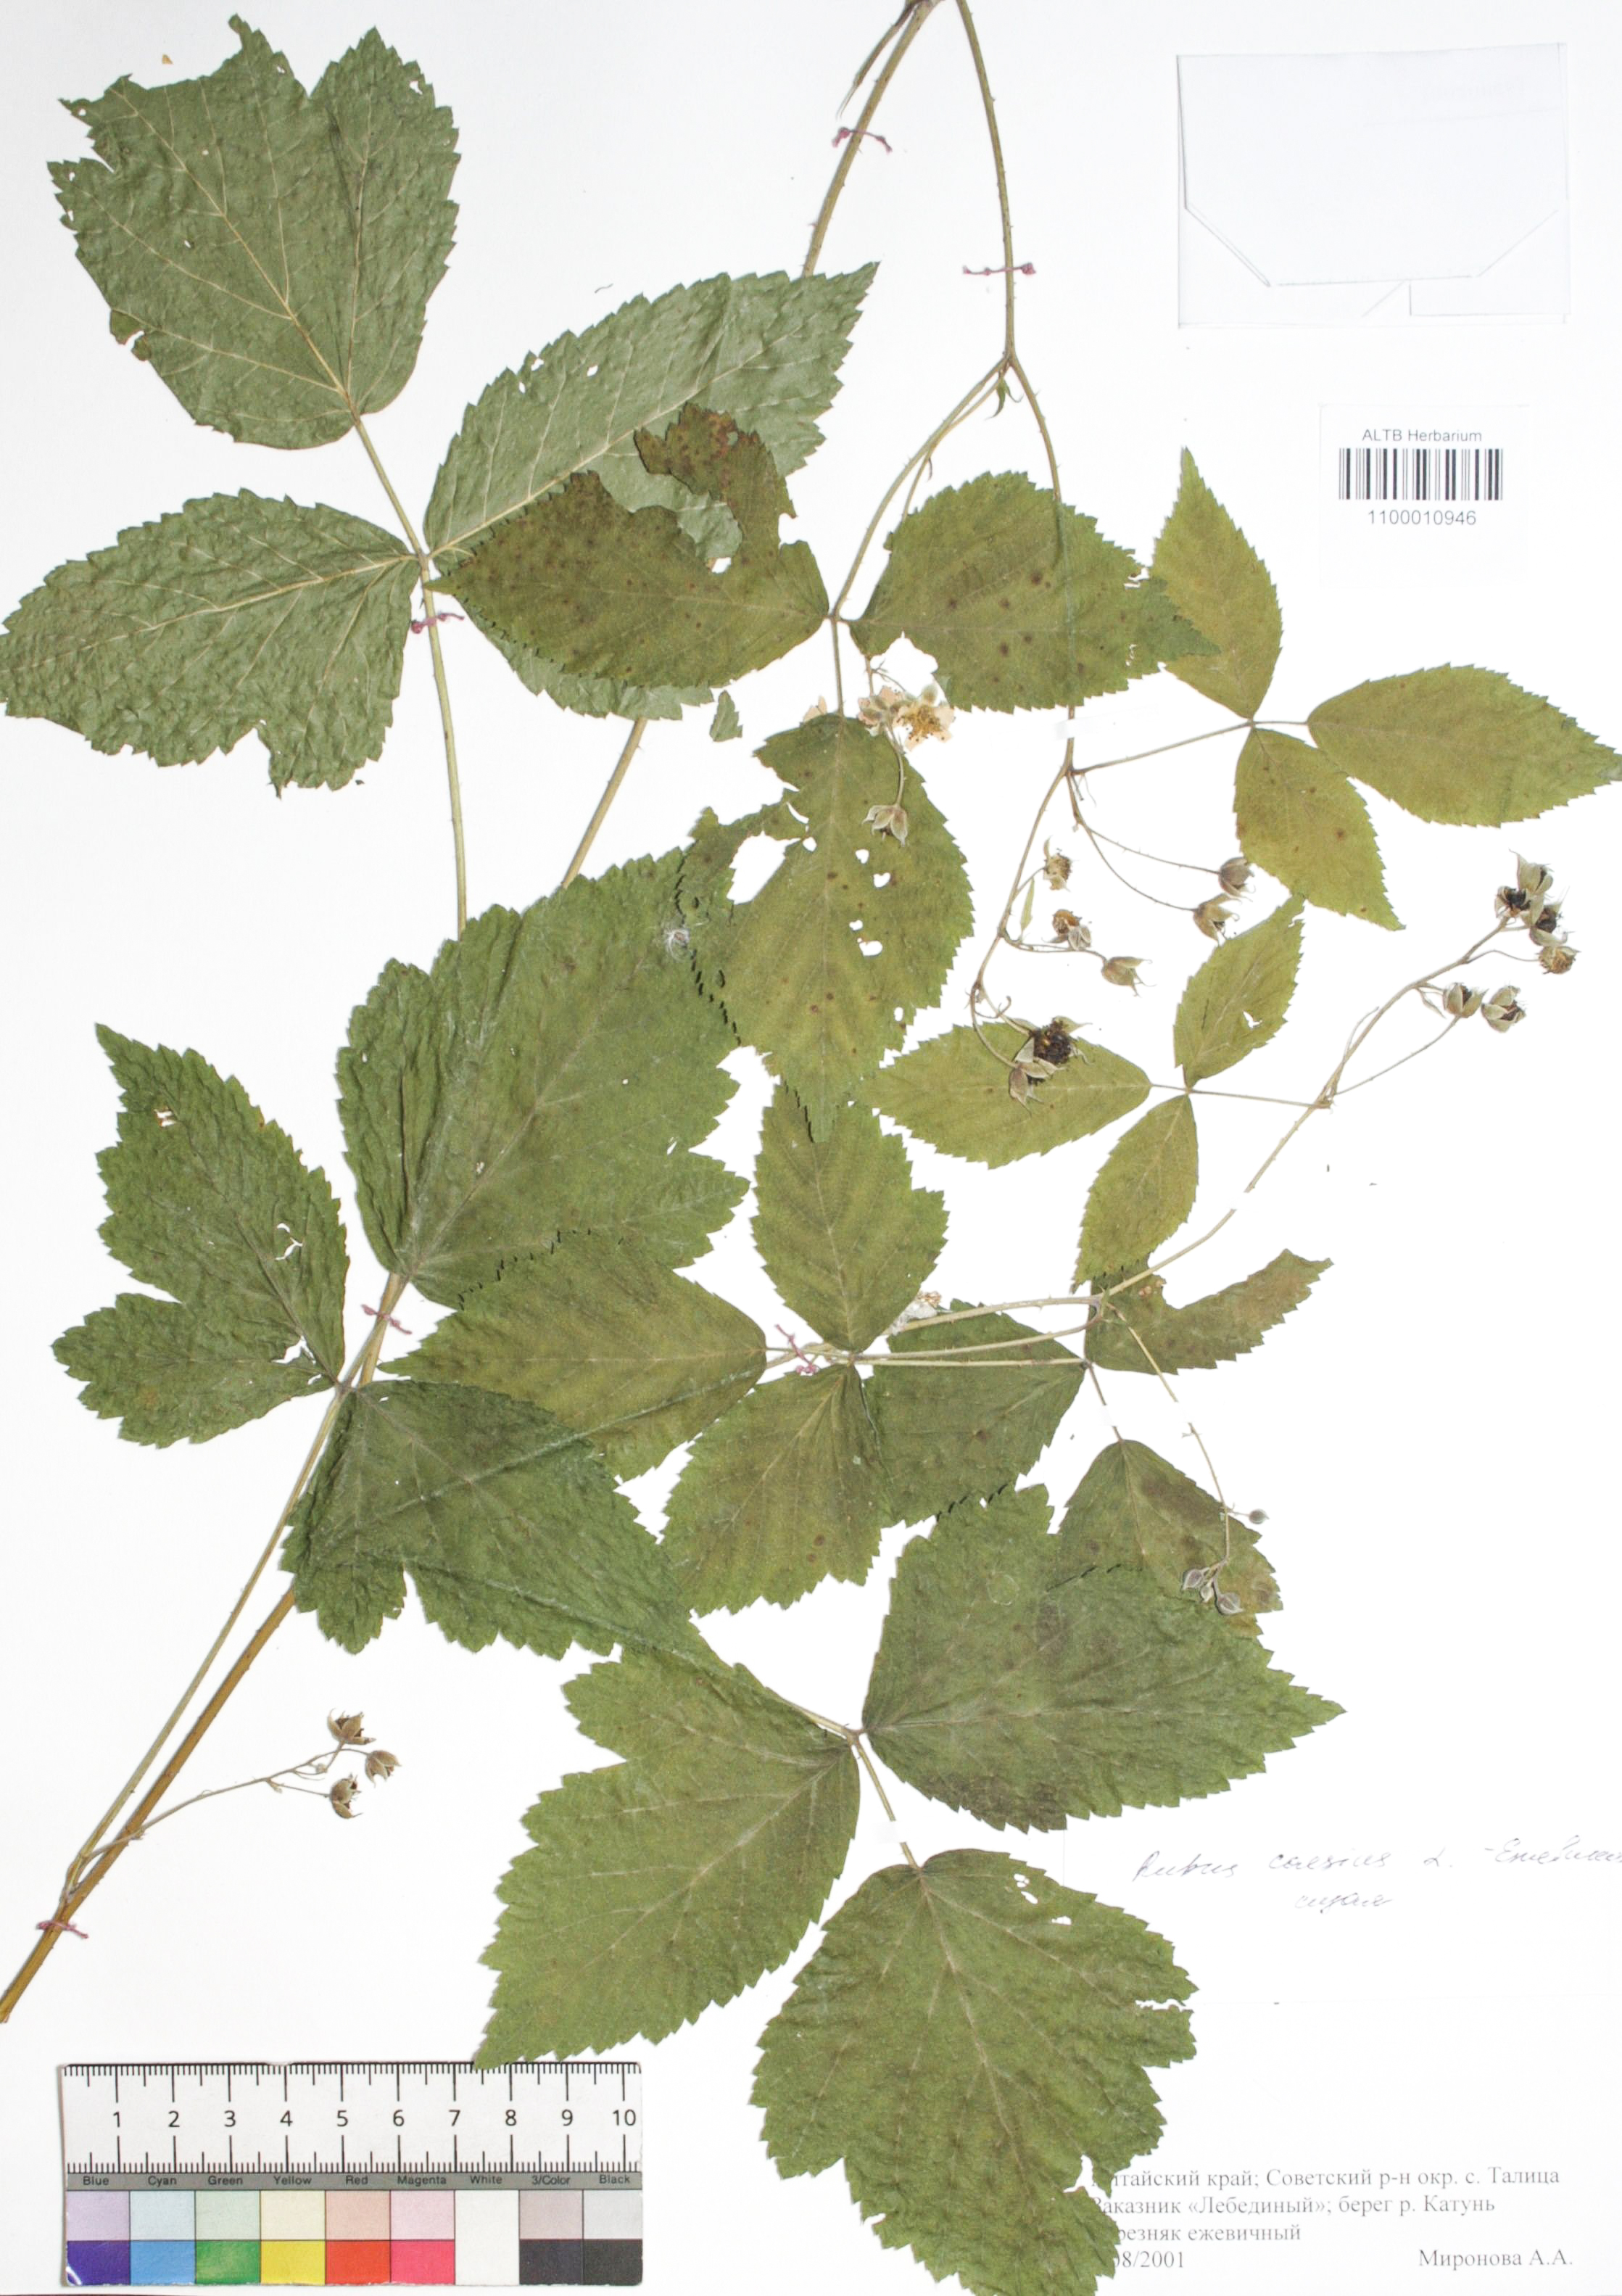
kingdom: Plantae
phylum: Tracheophyta
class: Magnoliopsida
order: Rosales
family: Rosaceae
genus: Rubus
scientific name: Rubus caesius
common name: Dewberry
